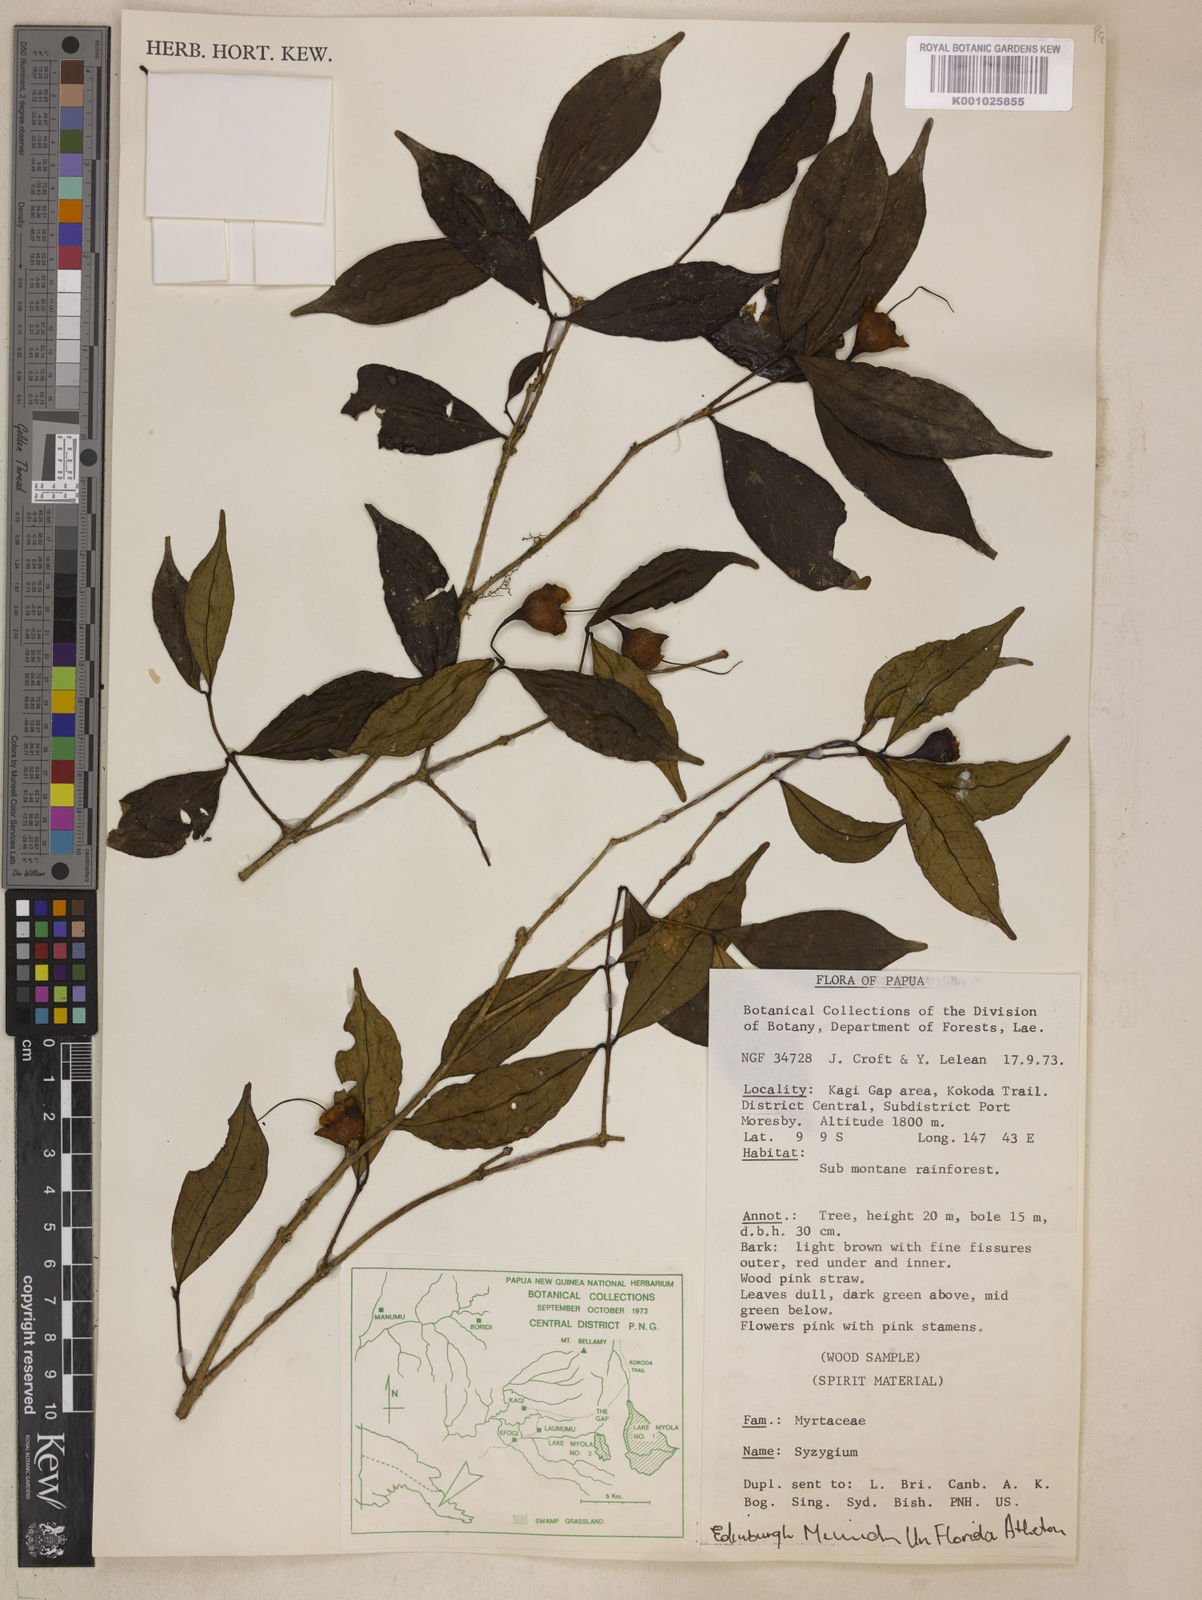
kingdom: Plantae
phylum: Tracheophyta
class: Magnoliopsida
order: Myrtales
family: Myrtaceae
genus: Syzygium
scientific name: Syzygium erythropetalum
